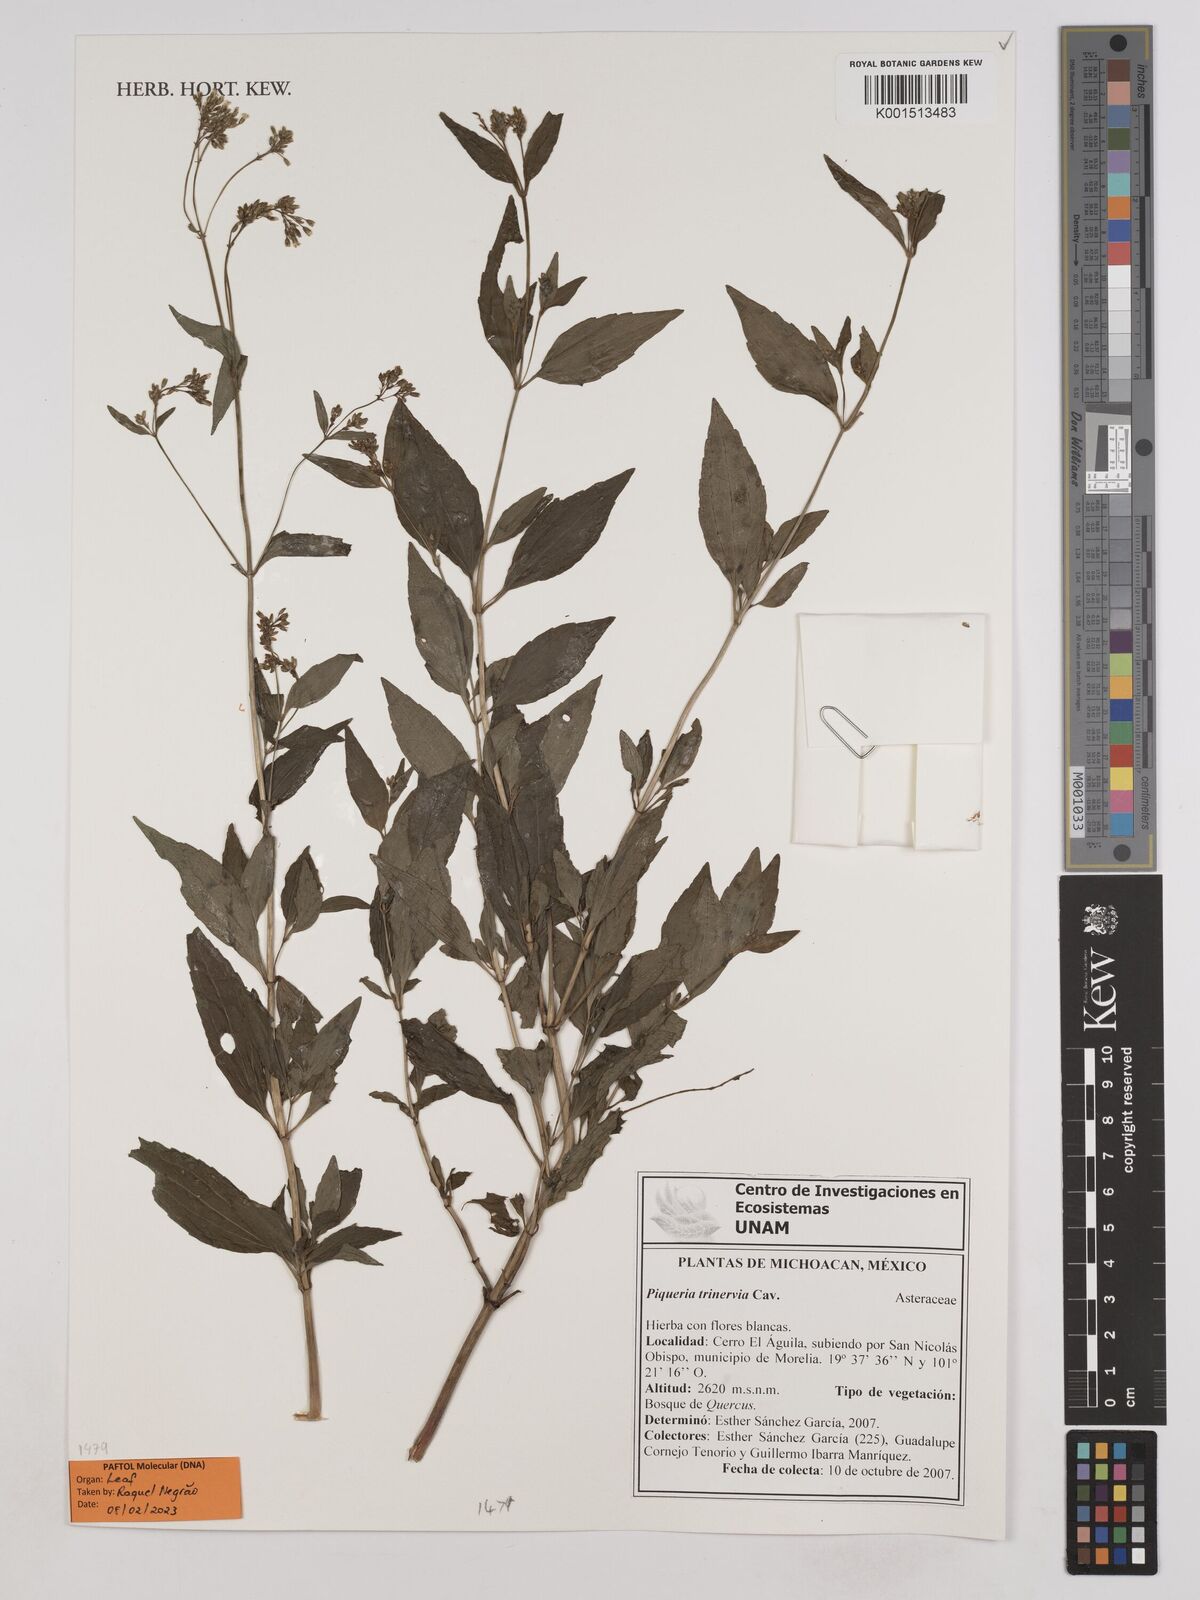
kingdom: Plantae
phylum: Tracheophyta
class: Magnoliopsida
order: Asterales
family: Asteraceae
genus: Piqueria
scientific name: Piqueria trinervia
